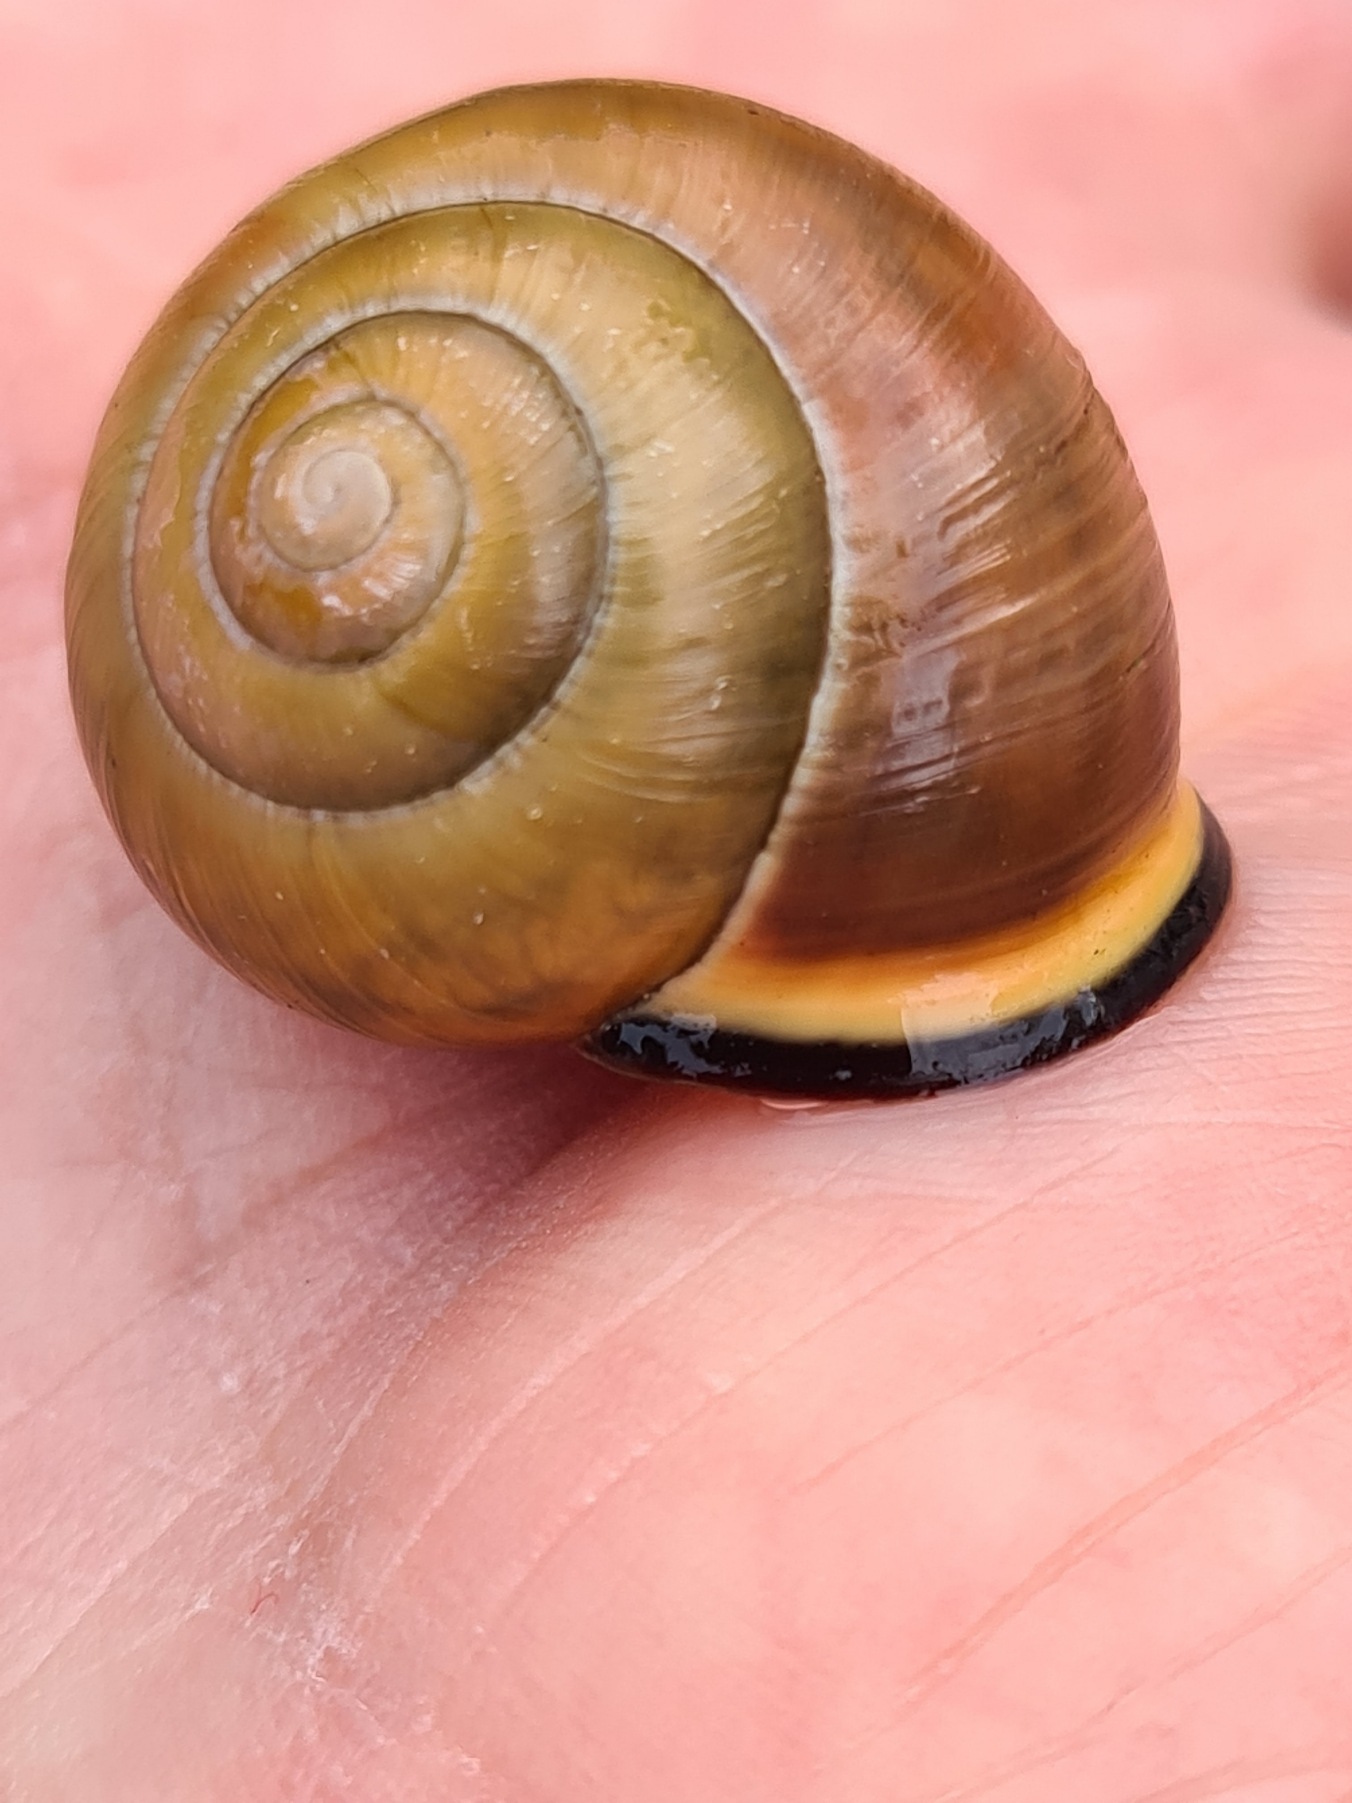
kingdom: Animalia
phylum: Mollusca
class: Gastropoda
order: Stylommatophora
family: Helicidae
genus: Cepaea
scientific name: Cepaea nemoralis
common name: Lundsnegl
